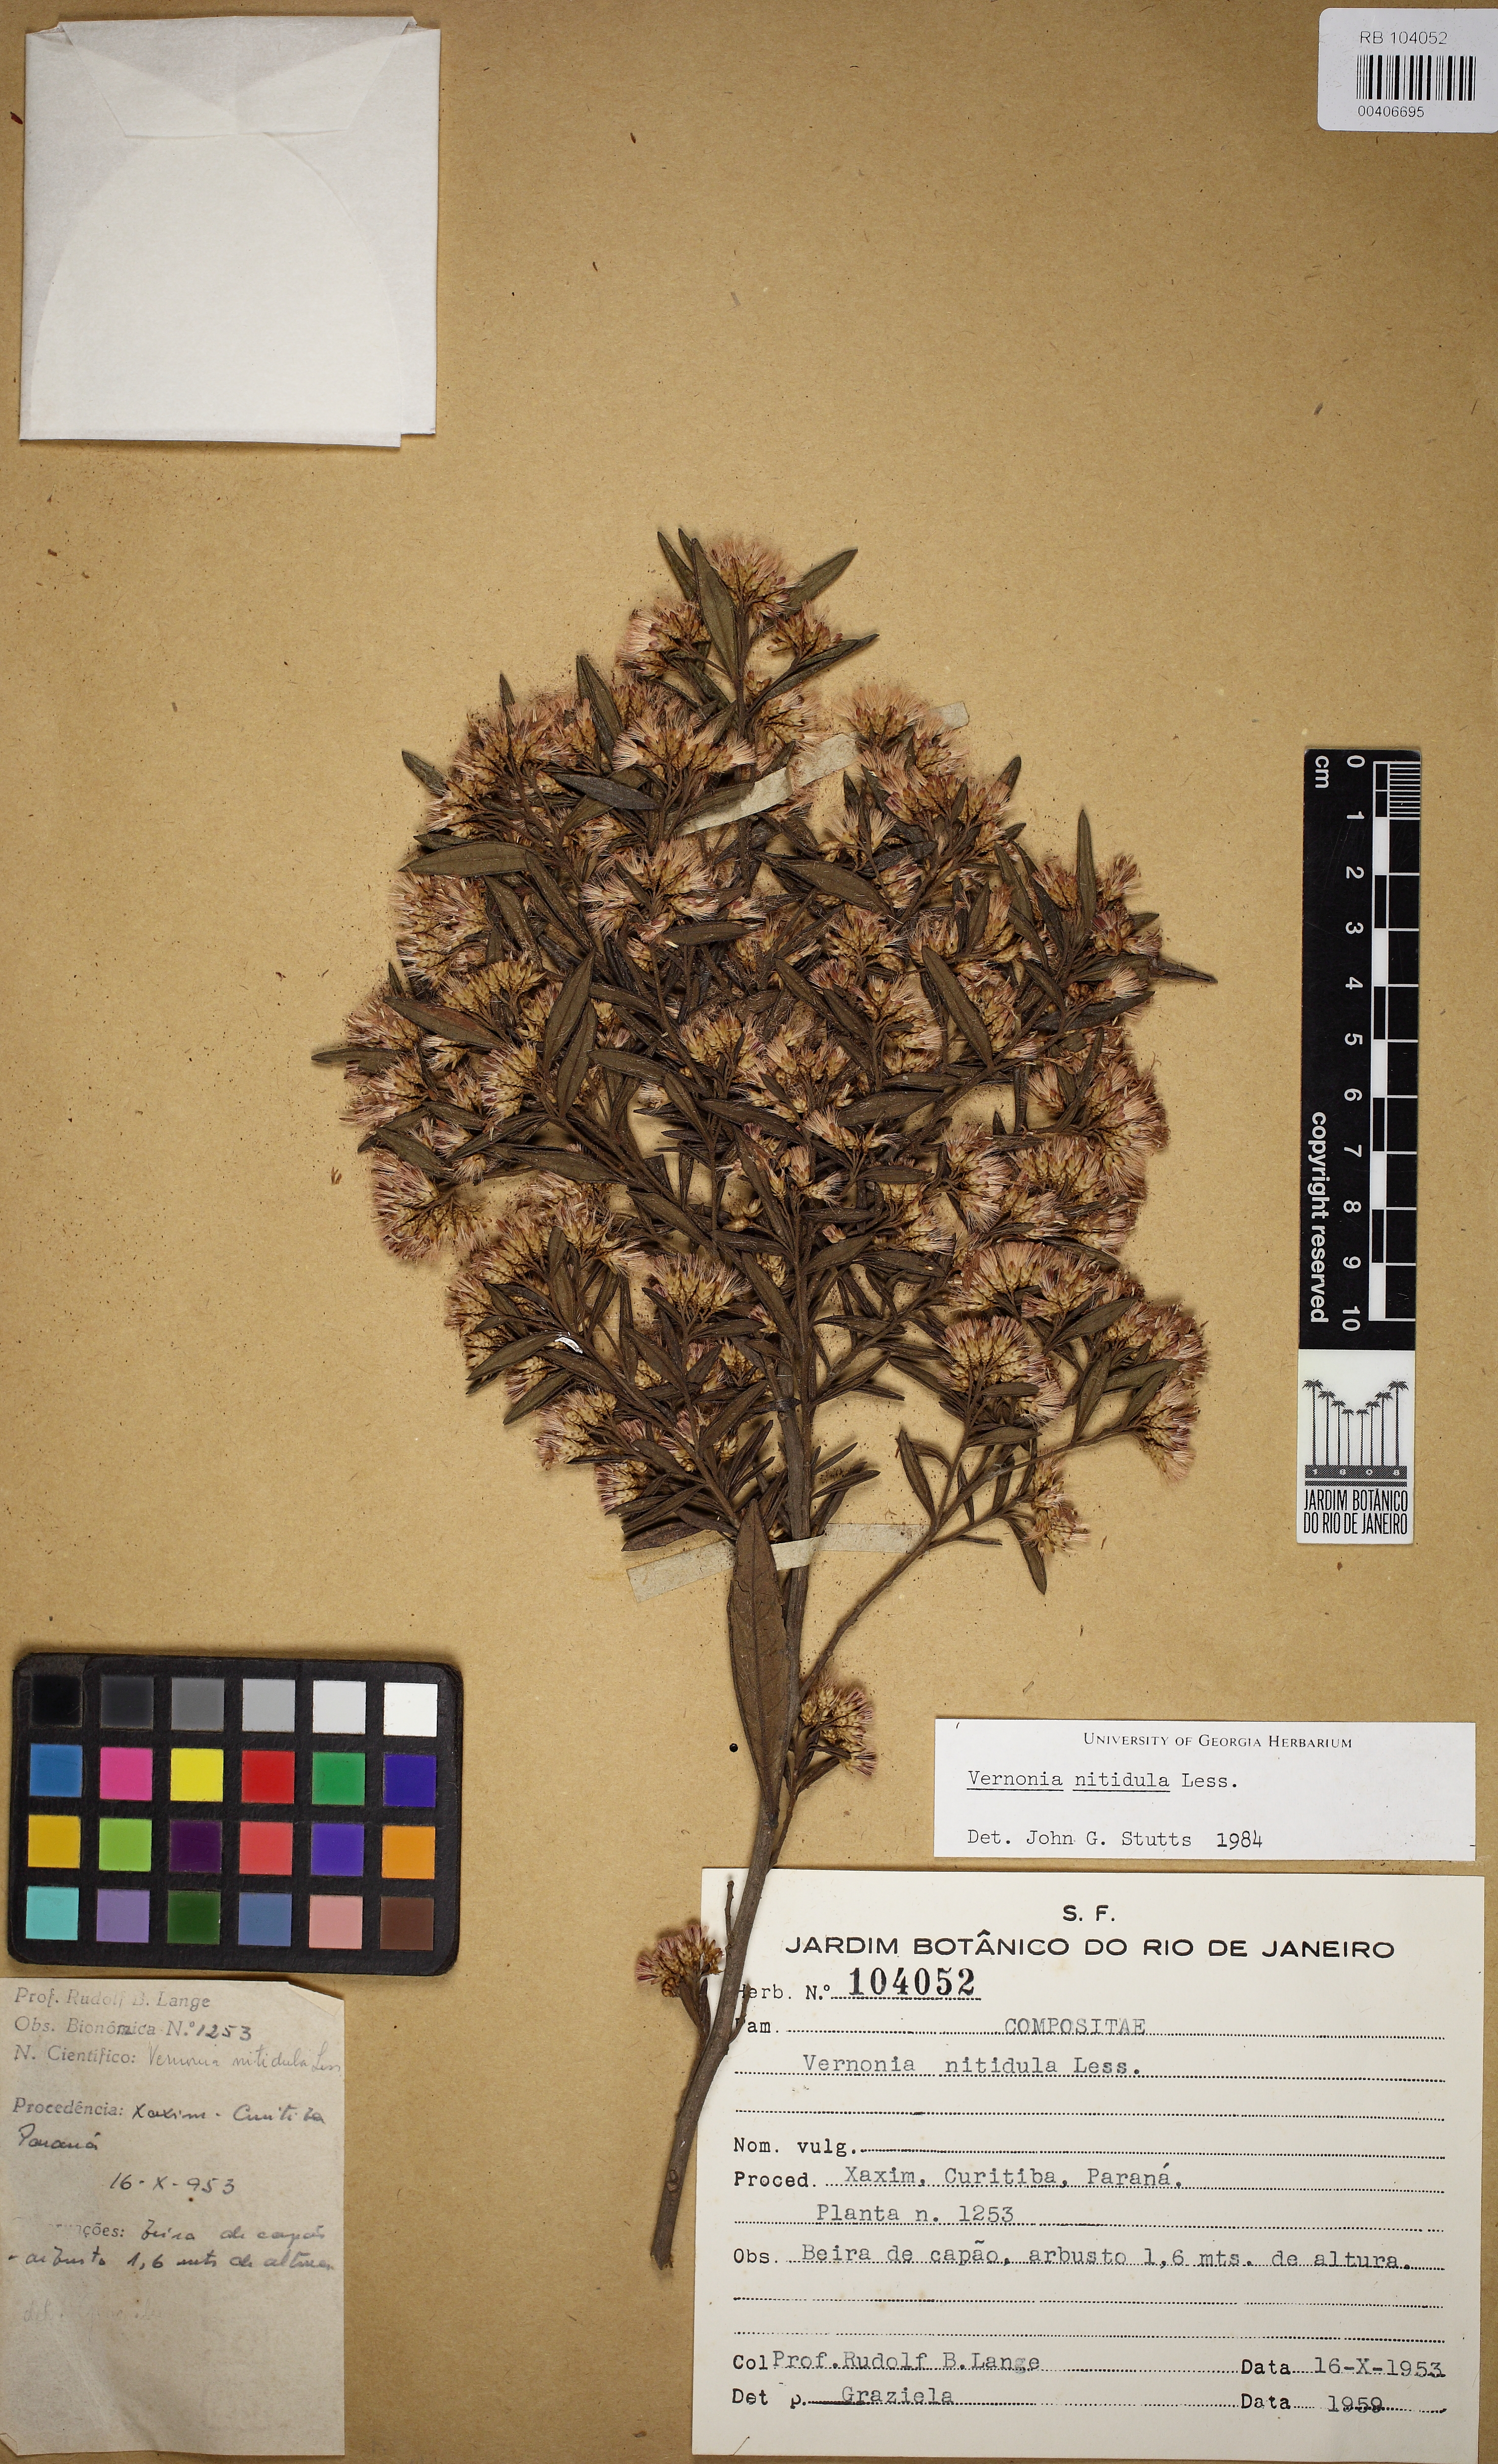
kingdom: Plantae
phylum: Tracheophyta
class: Magnoliopsida
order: Asterales
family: Asteraceae
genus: Vernonanthura
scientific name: Vernonanthura montevidensis
